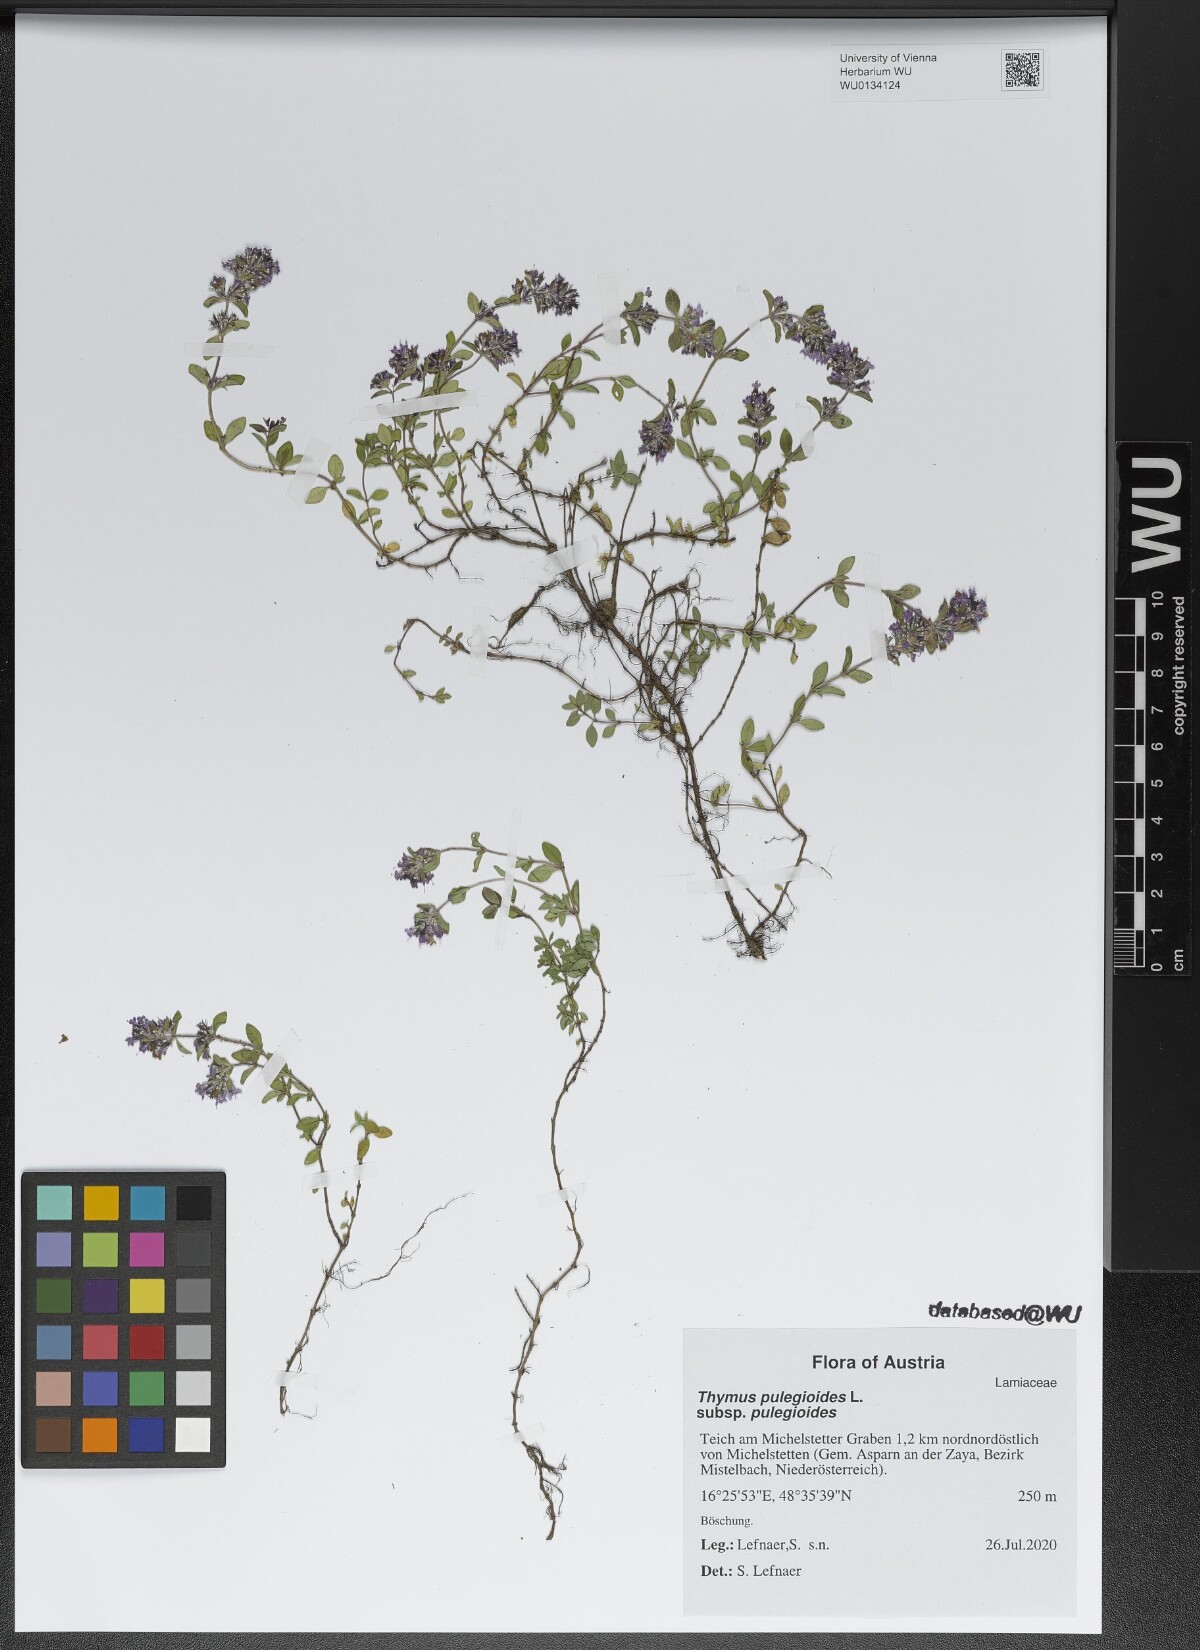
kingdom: Plantae
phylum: Tracheophyta
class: Magnoliopsida
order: Lamiales
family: Lamiaceae
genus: Thymus
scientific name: Thymus pulegioides
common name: Large thyme
